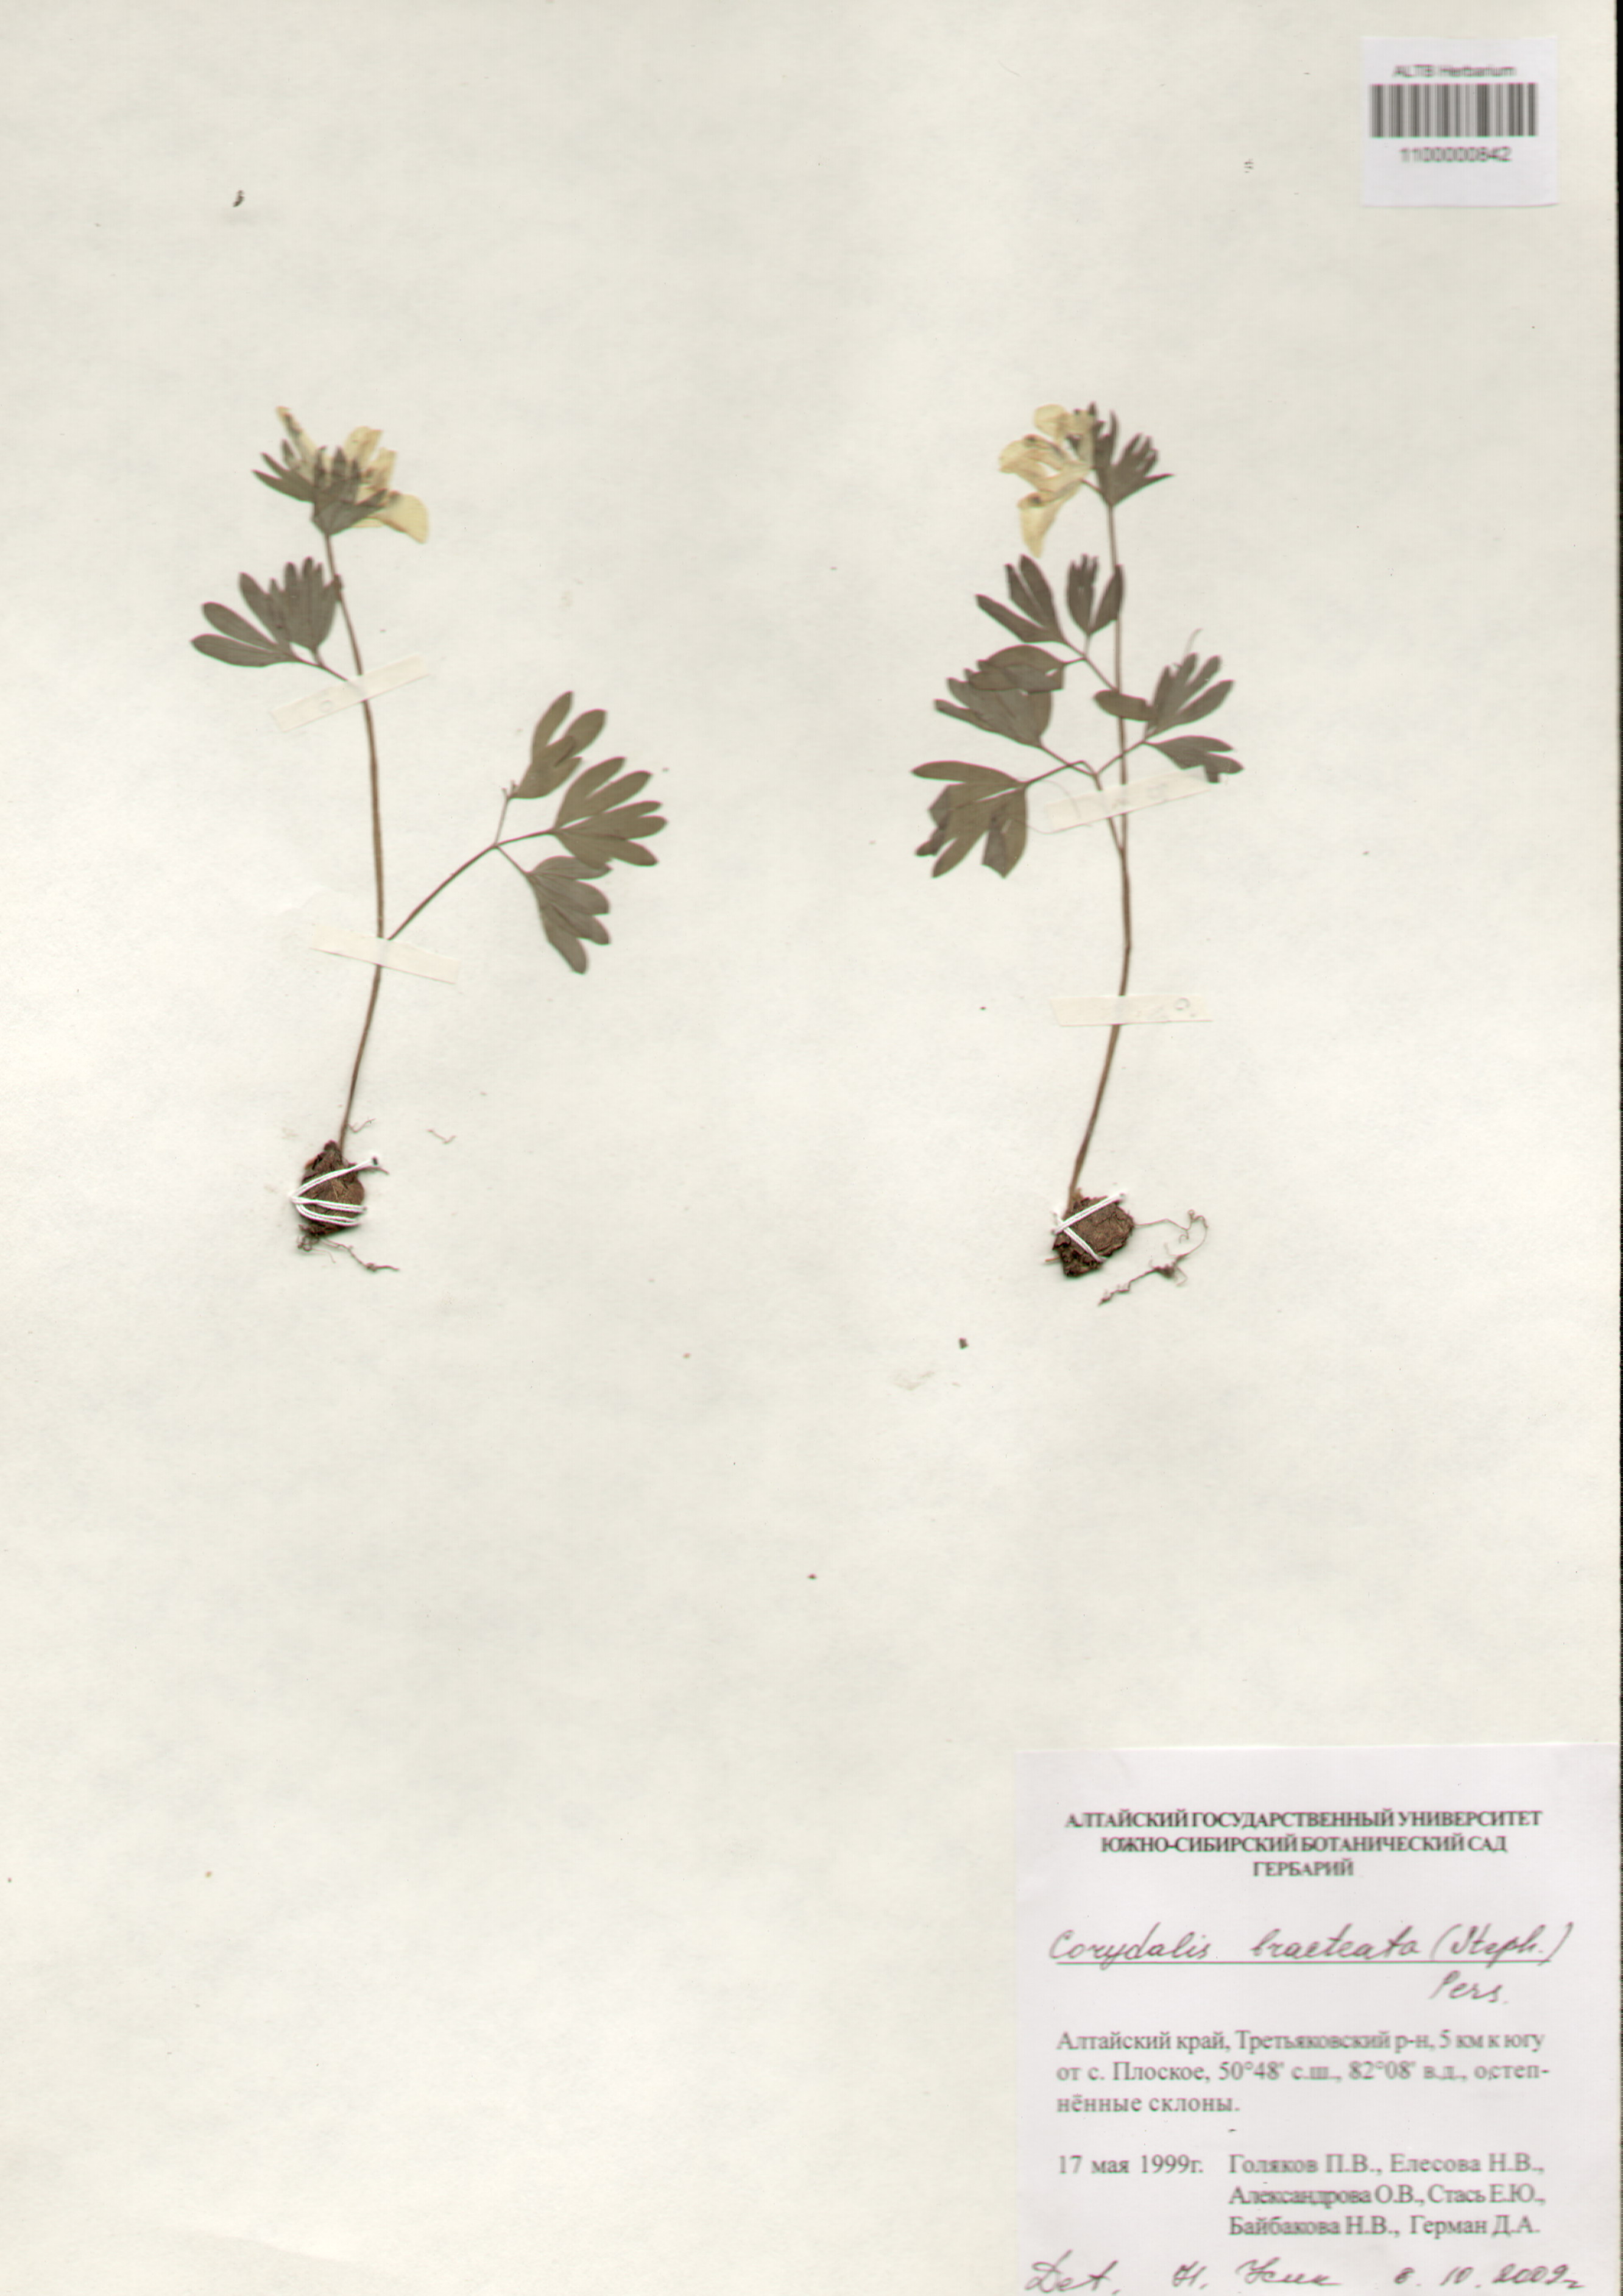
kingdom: Plantae
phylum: Tracheophyta
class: Magnoliopsida
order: Ranunculales
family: Papaveraceae
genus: Corydalis
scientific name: Corydalis bracteata
